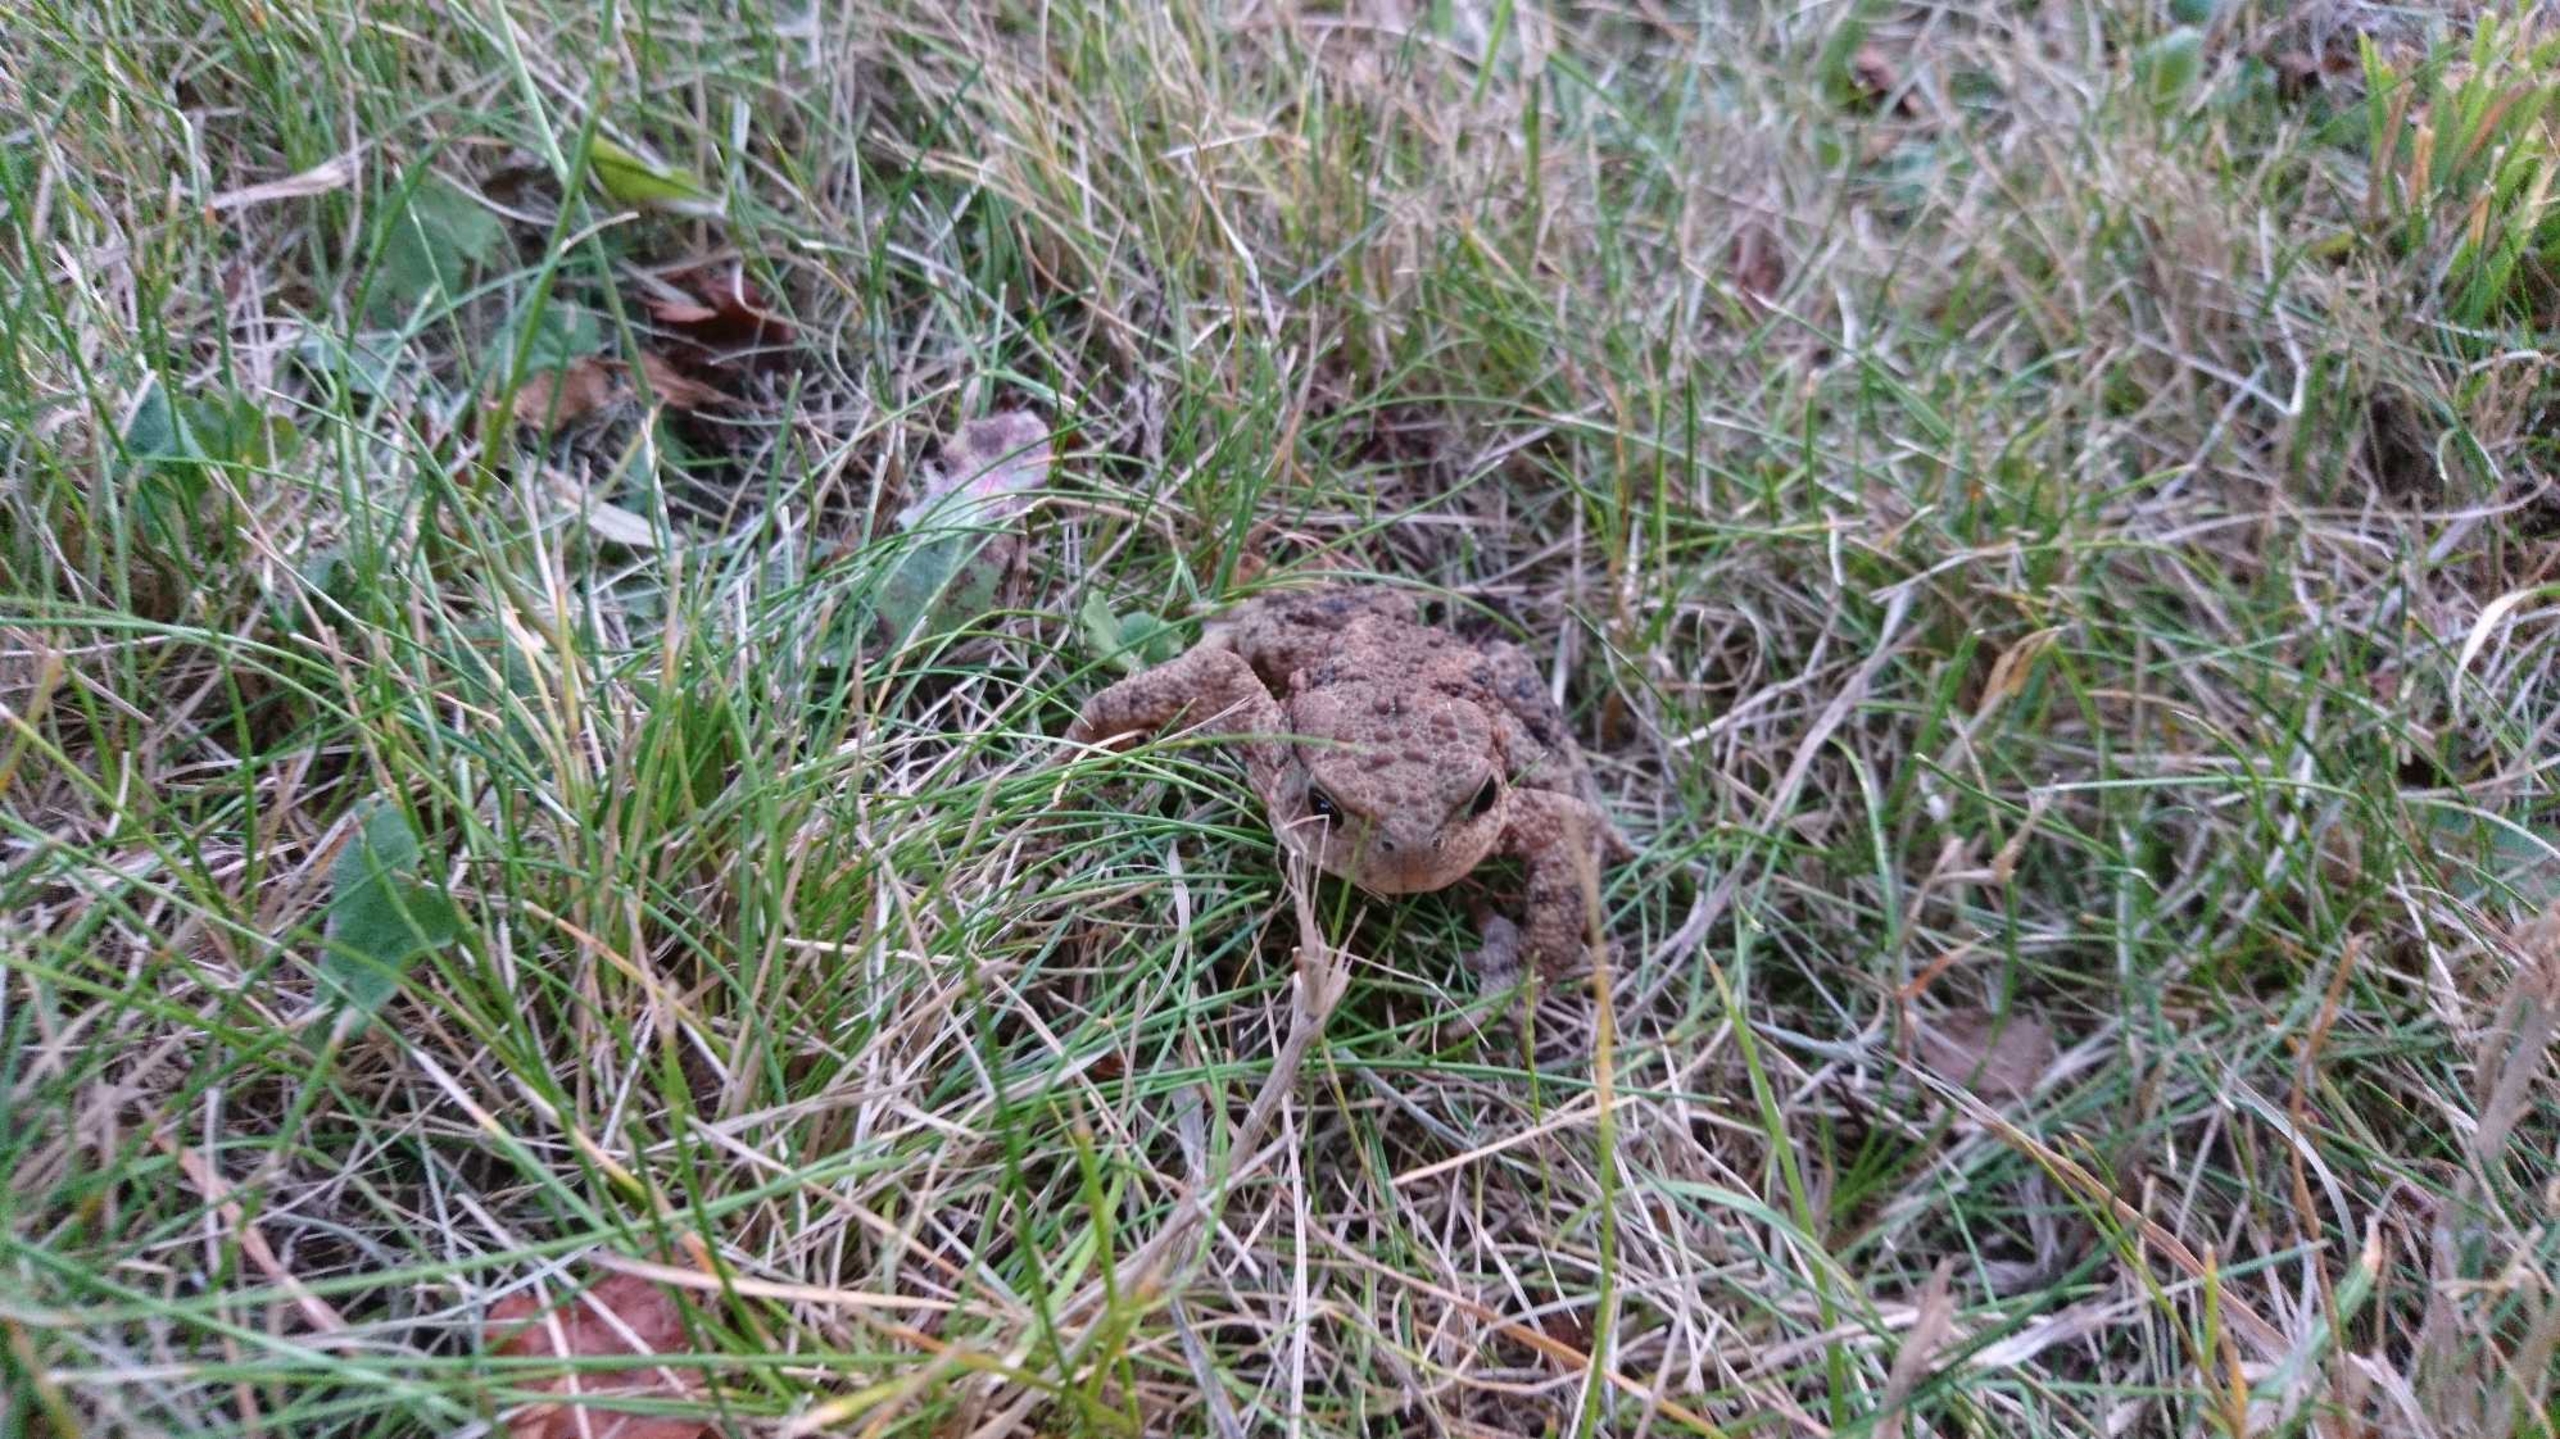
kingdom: Animalia
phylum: Chordata
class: Amphibia
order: Anura
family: Bufonidae
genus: Bufo
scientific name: Bufo bufo
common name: Skrubtudse
